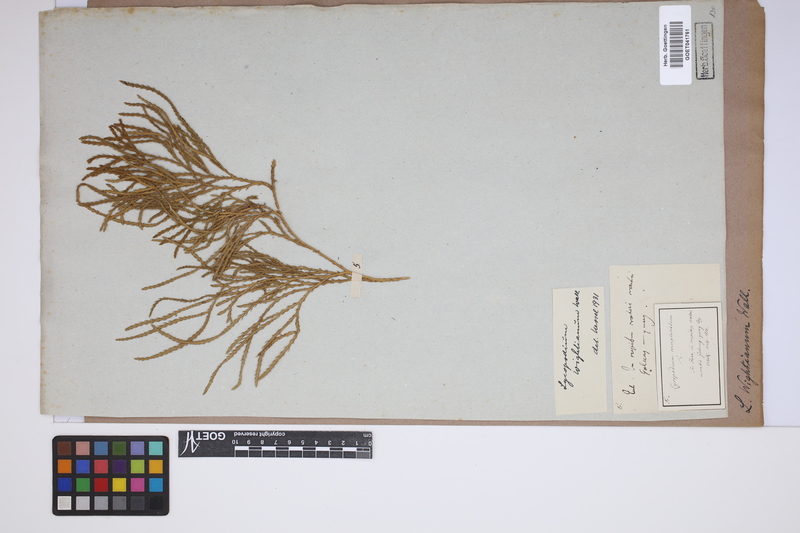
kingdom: Plantae
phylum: Tracheophyta
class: Lycopodiopsida
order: Lycopodiales
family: Lycopodiaceae
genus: Diphasiastrum
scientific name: Diphasiastrum wightianum
